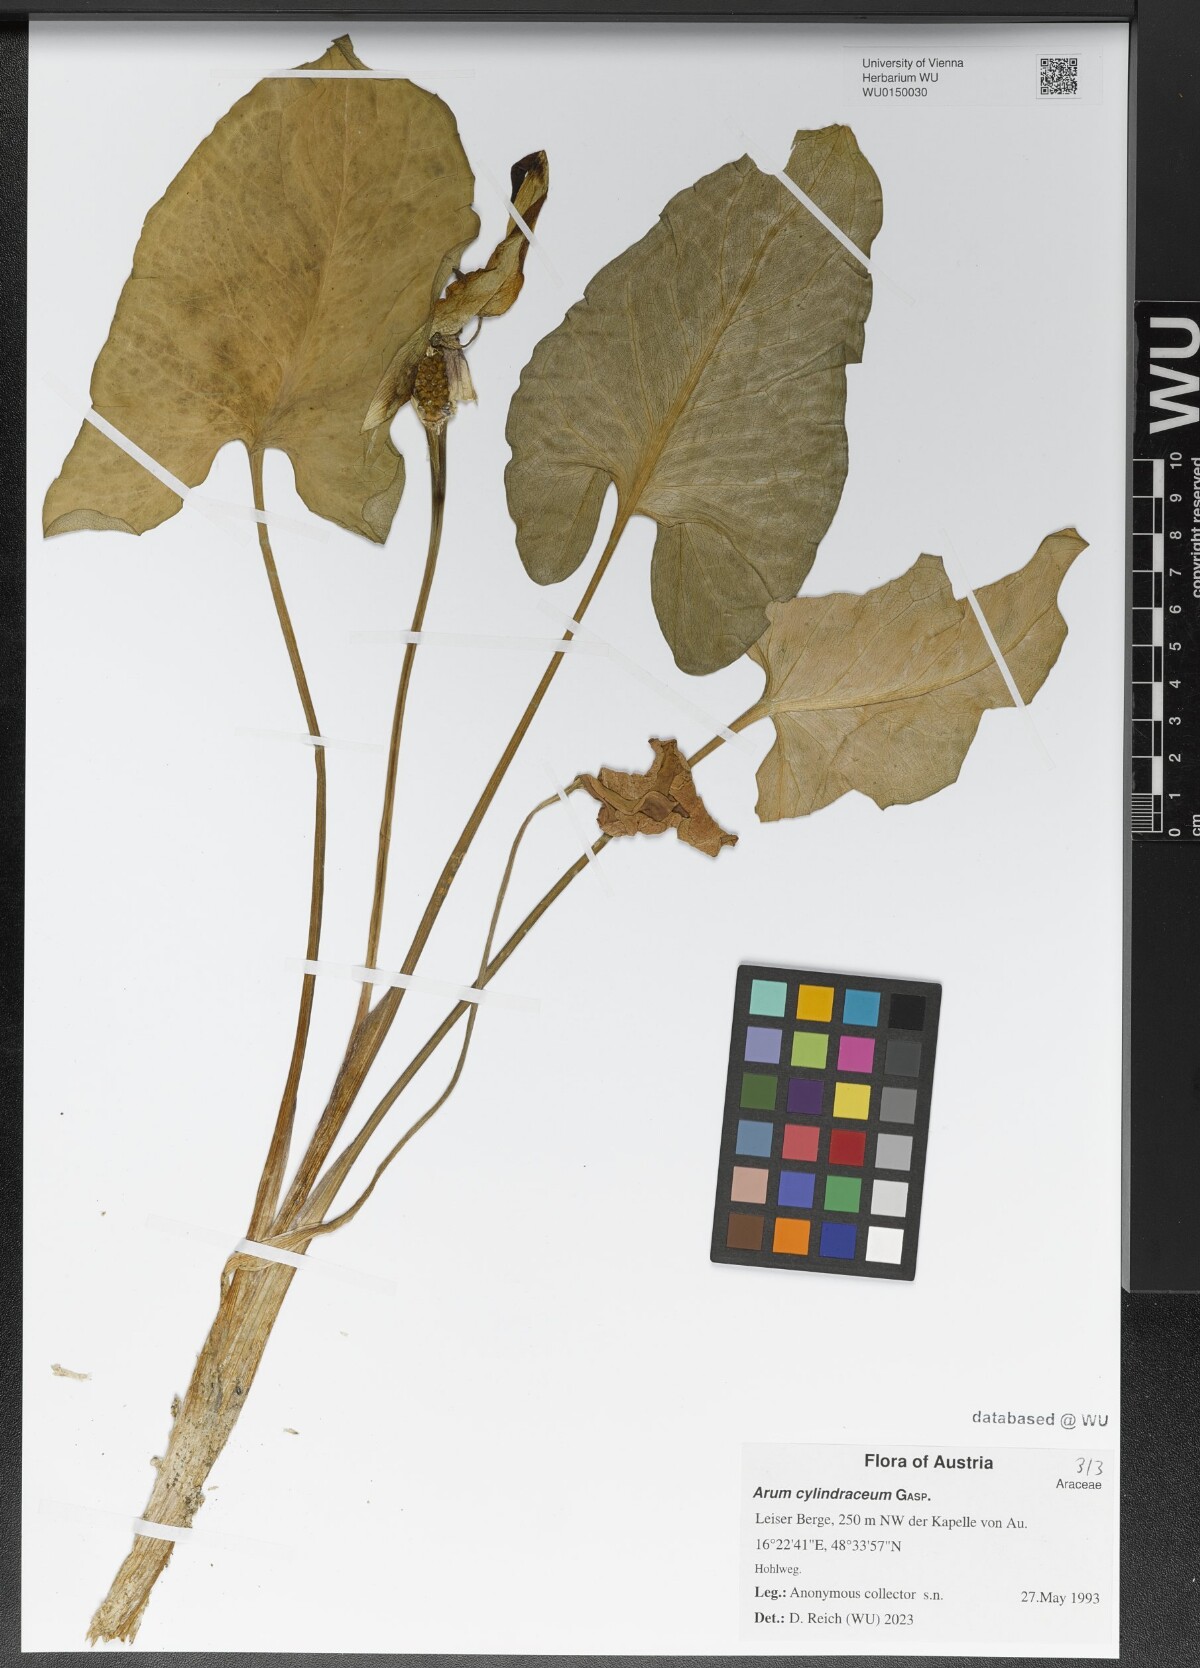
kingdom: Plantae
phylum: Tracheophyta
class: Liliopsida
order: Alismatales
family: Araceae
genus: Arum
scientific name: Arum cylindraceum
